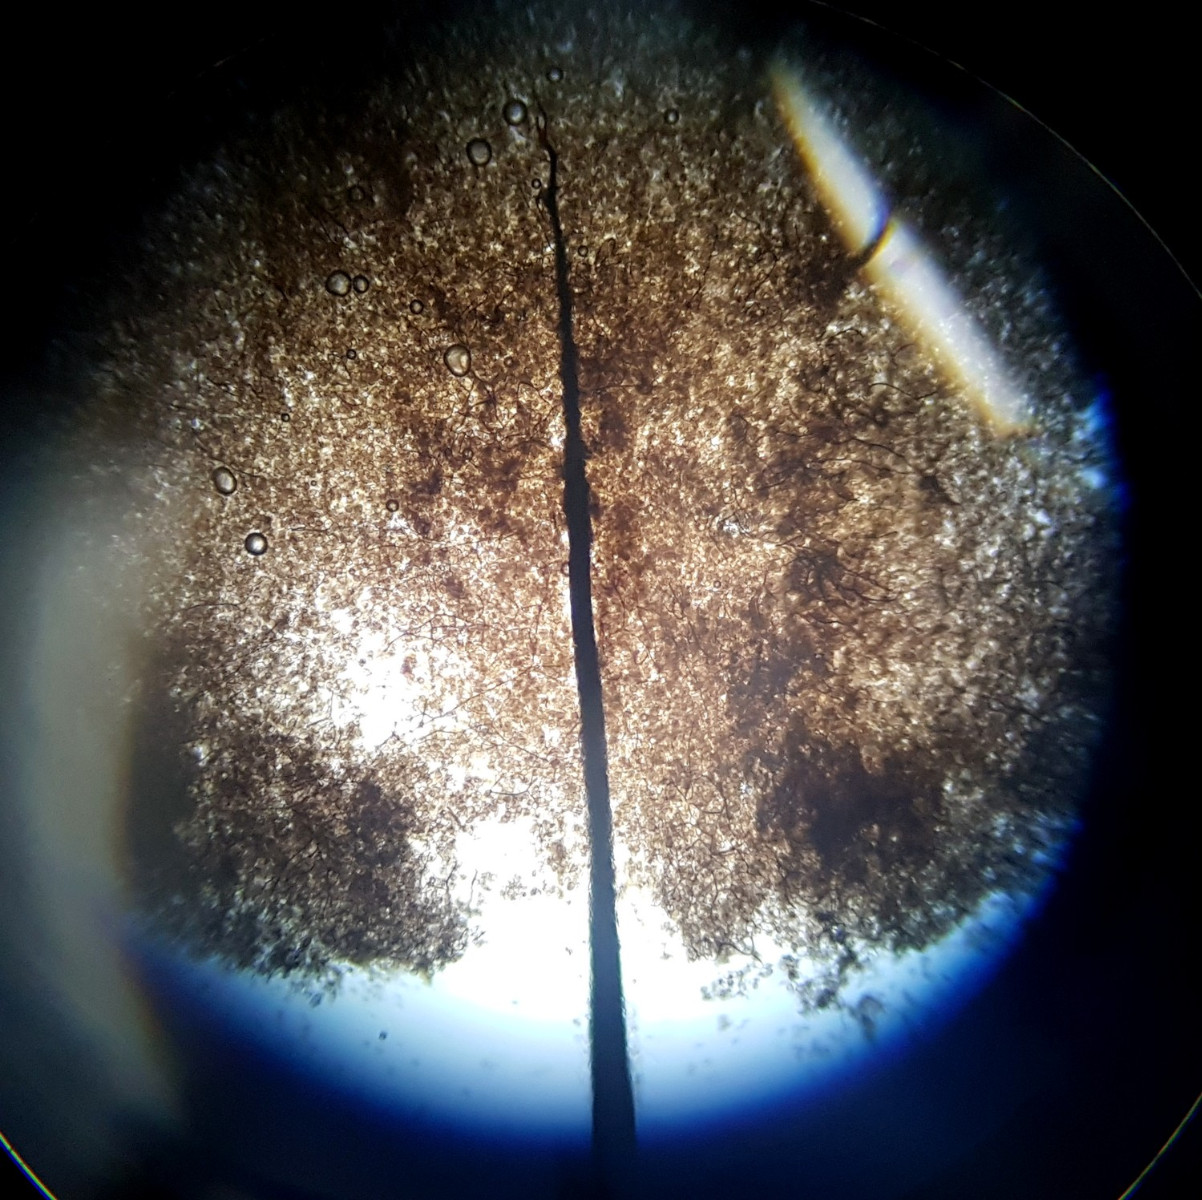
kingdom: Protozoa
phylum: Mycetozoa
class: Myxomycetes
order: Stemonitidales
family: Stemonitidaceae
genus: Comatricha
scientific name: Comatricha nigra
